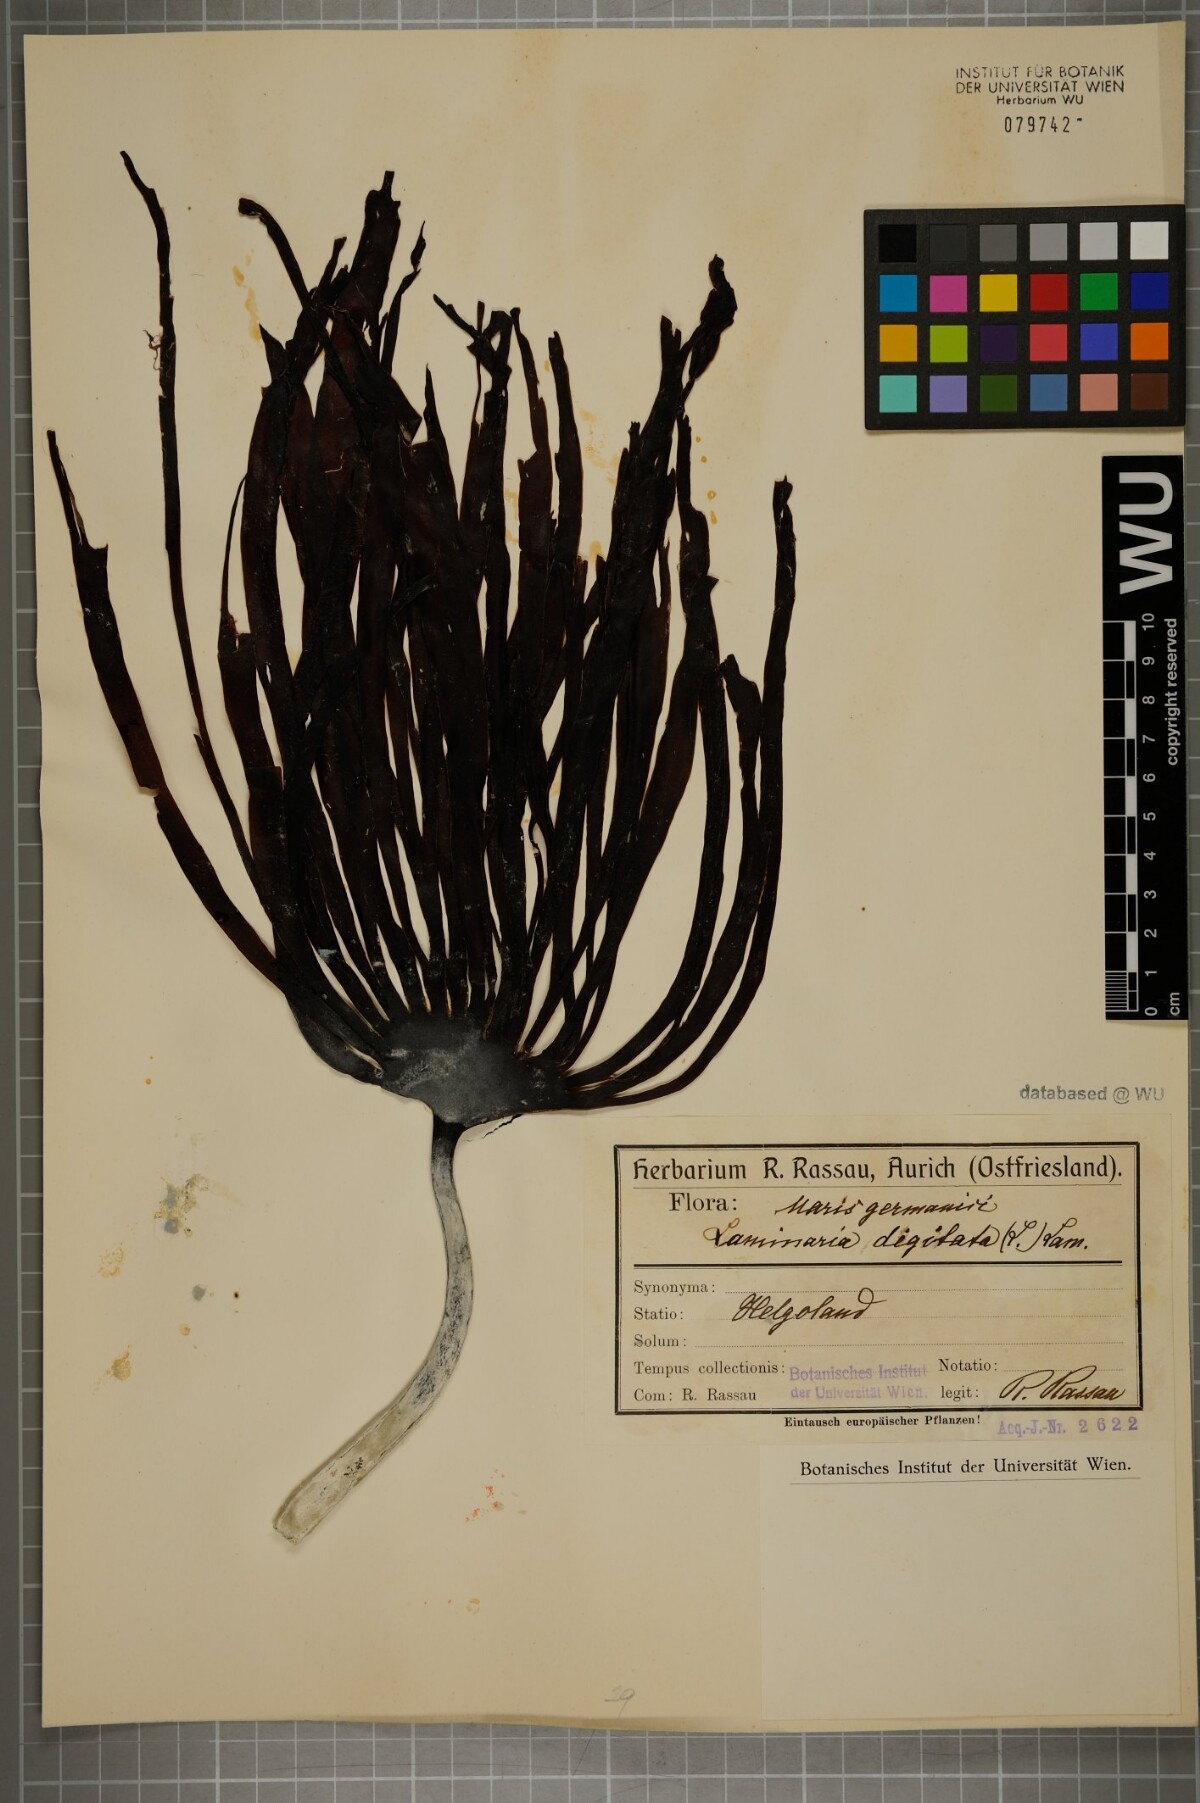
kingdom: Chromista
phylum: Ochrophyta
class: Phaeophyceae
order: Laminariales
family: Laminariaceae
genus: Laminaria
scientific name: Laminaria digitata
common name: Oarweed
